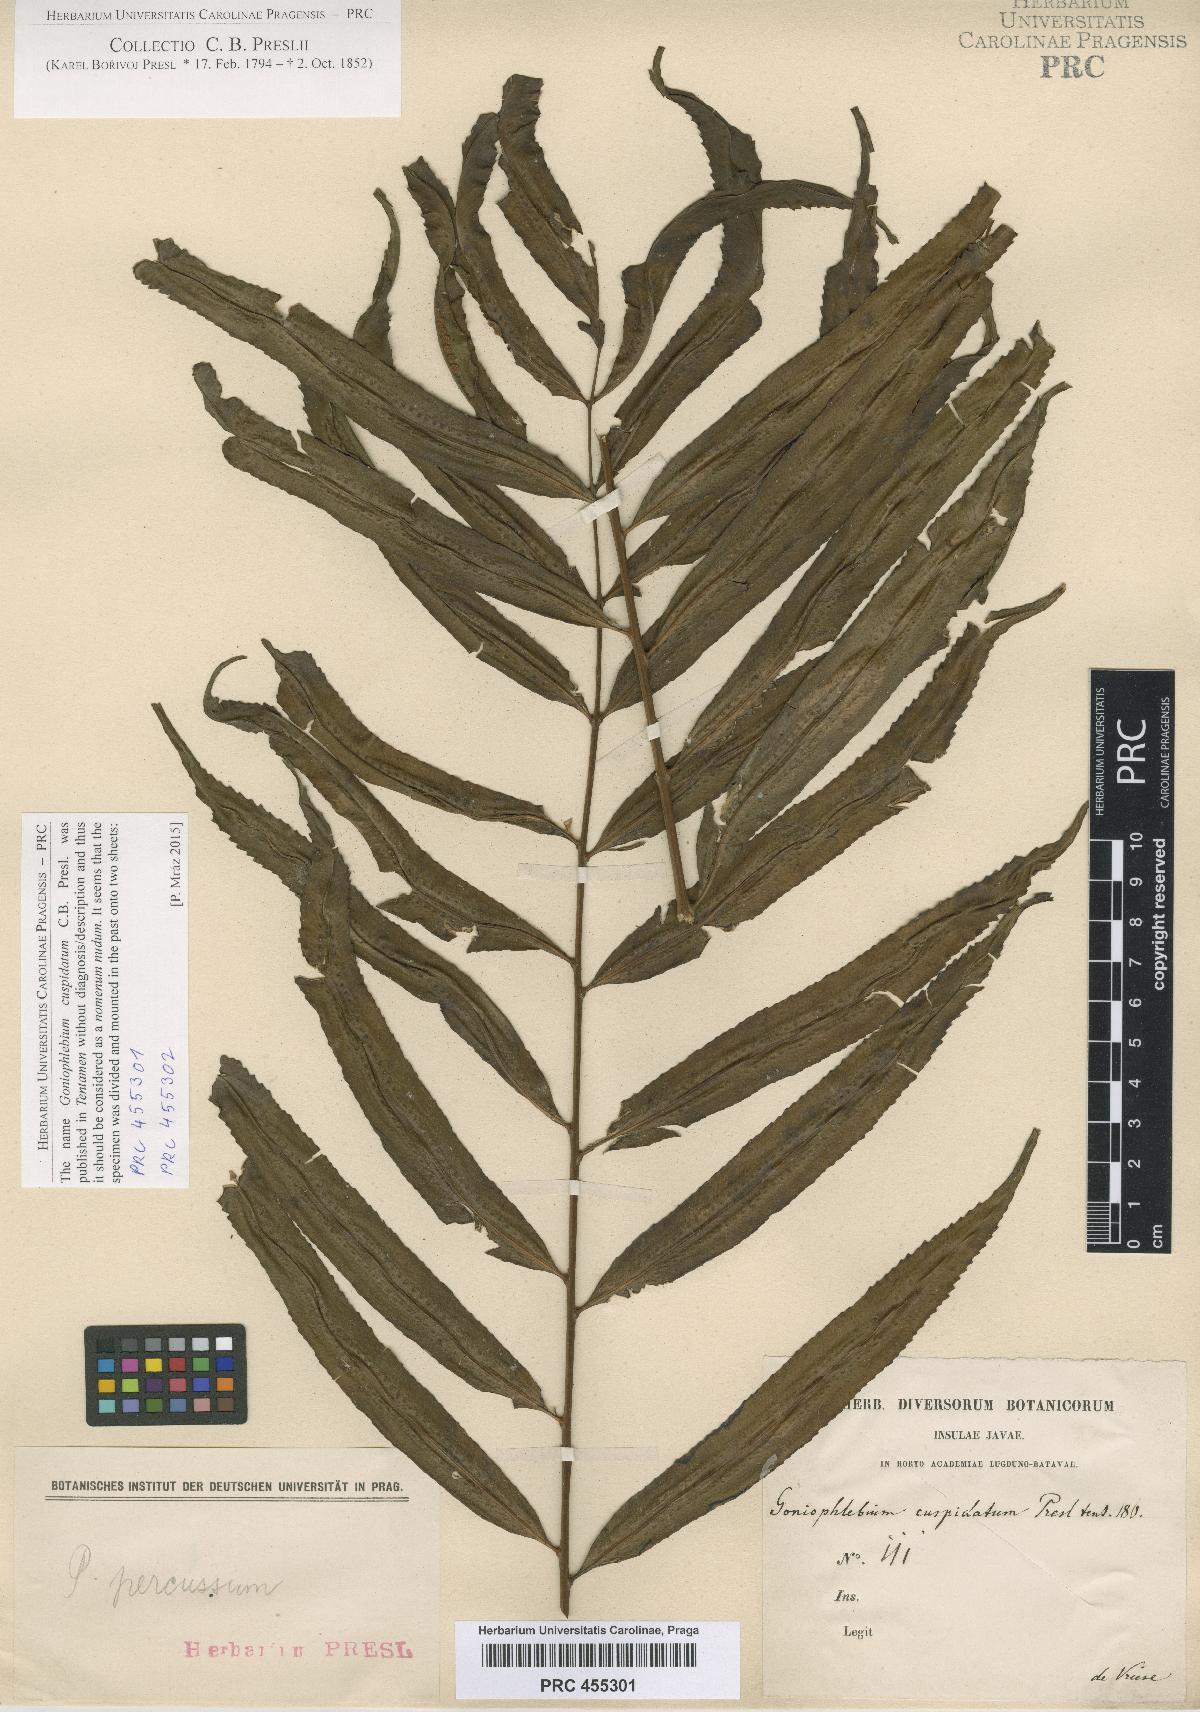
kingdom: Plantae
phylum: Tracheophyta
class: Polypodiopsida
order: Polypodiales
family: Polypodiaceae
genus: Goniophlebium
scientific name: Goniophlebium persicifolium
